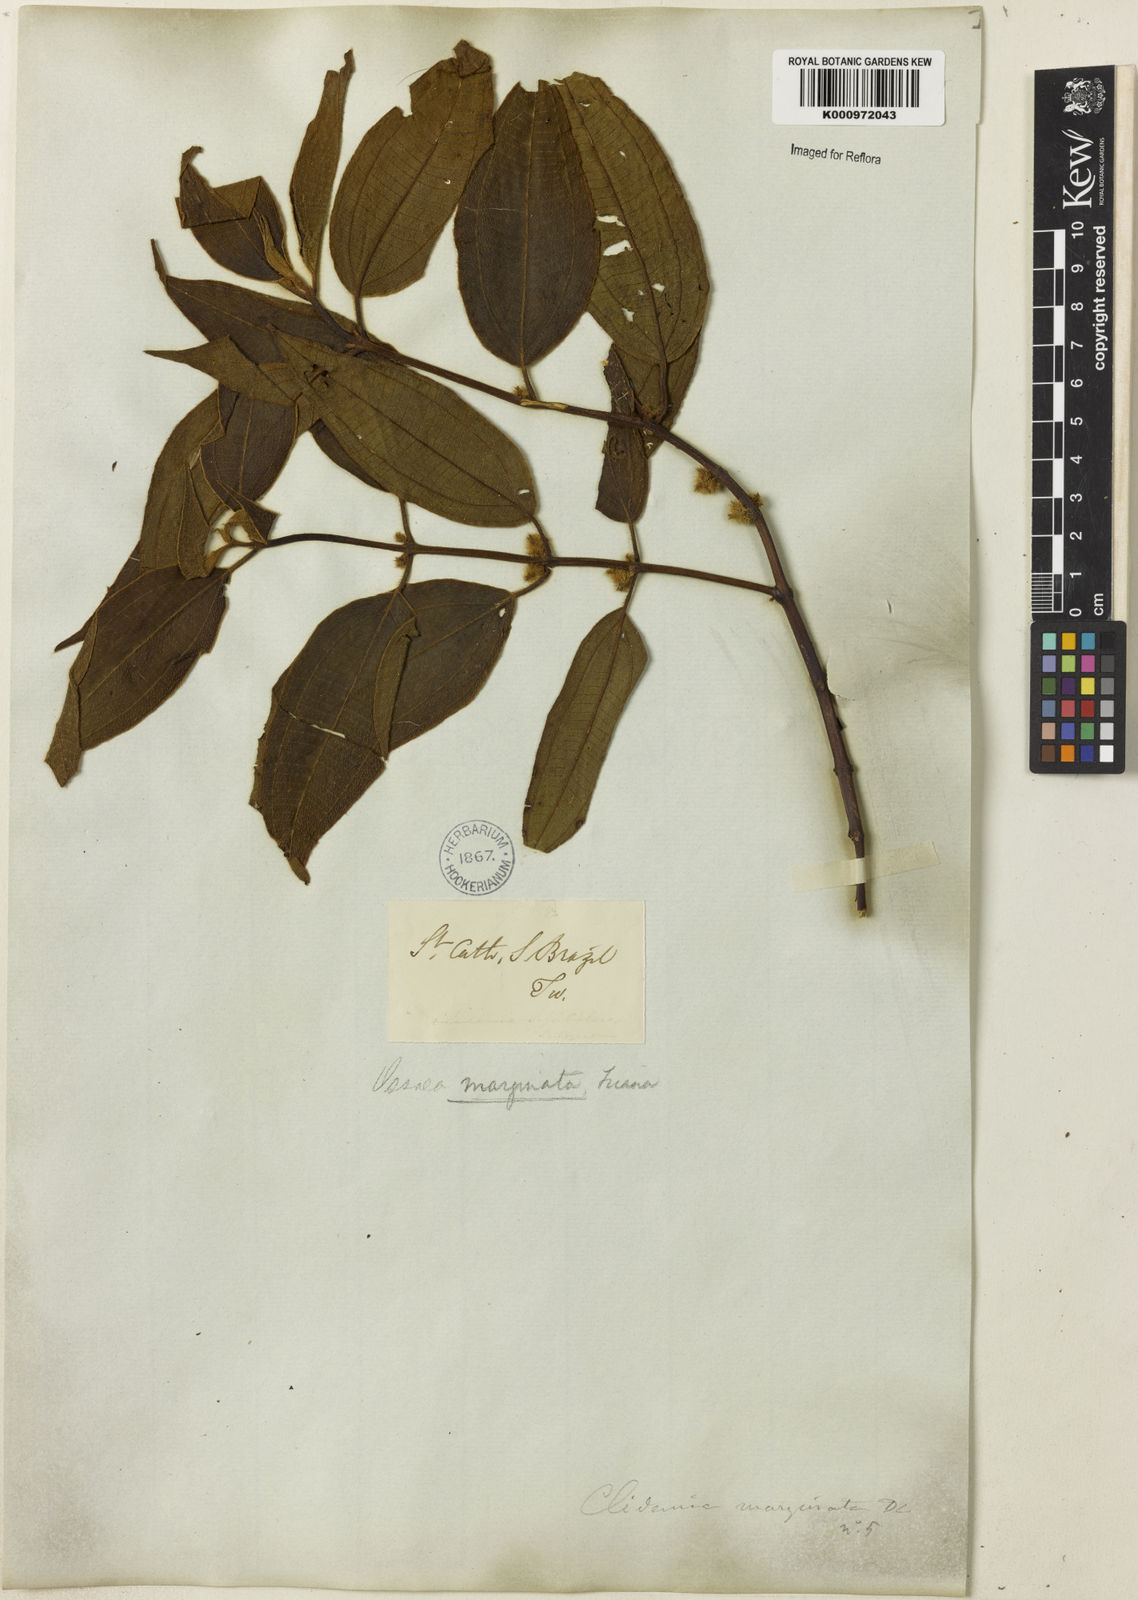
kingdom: Plantae
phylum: Tracheophyta
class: Magnoliopsida
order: Myrtales
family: Melastomataceae
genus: Miconia
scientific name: Miconia leamarginata
